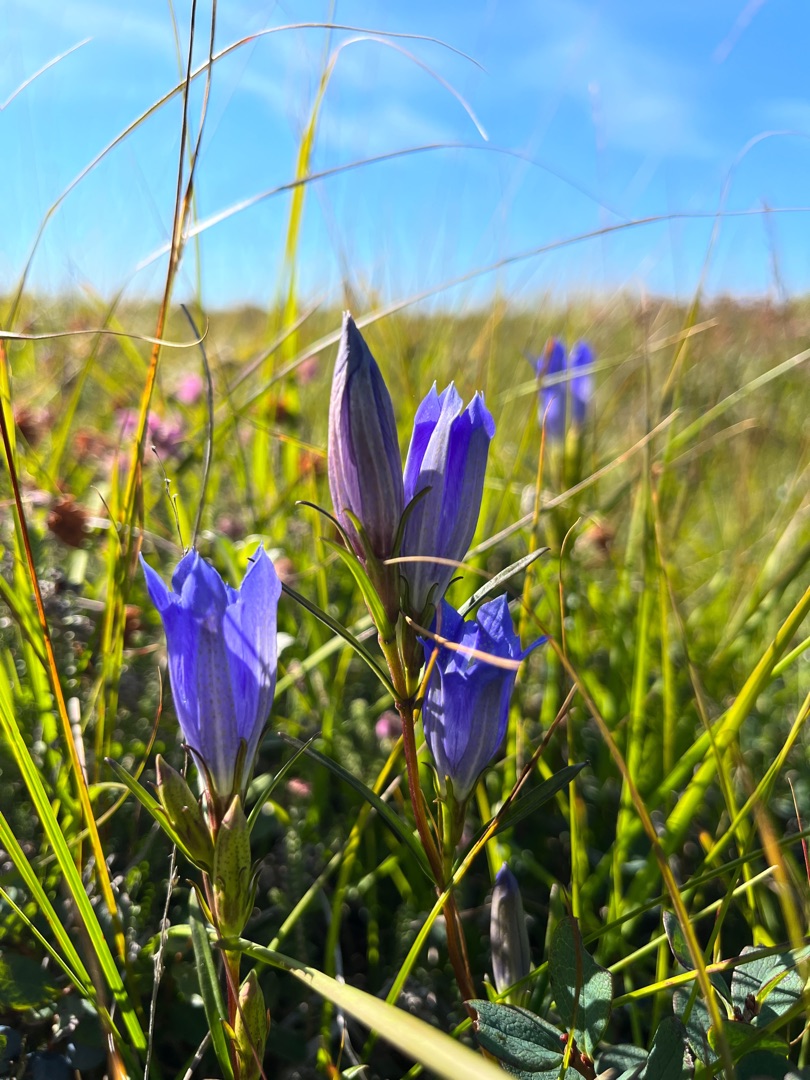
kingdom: Plantae
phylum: Tracheophyta
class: Magnoliopsida
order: Gentianales
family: Gentianaceae
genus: Gentiana
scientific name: Gentiana pneumonanthe
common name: Klokke-ensian
